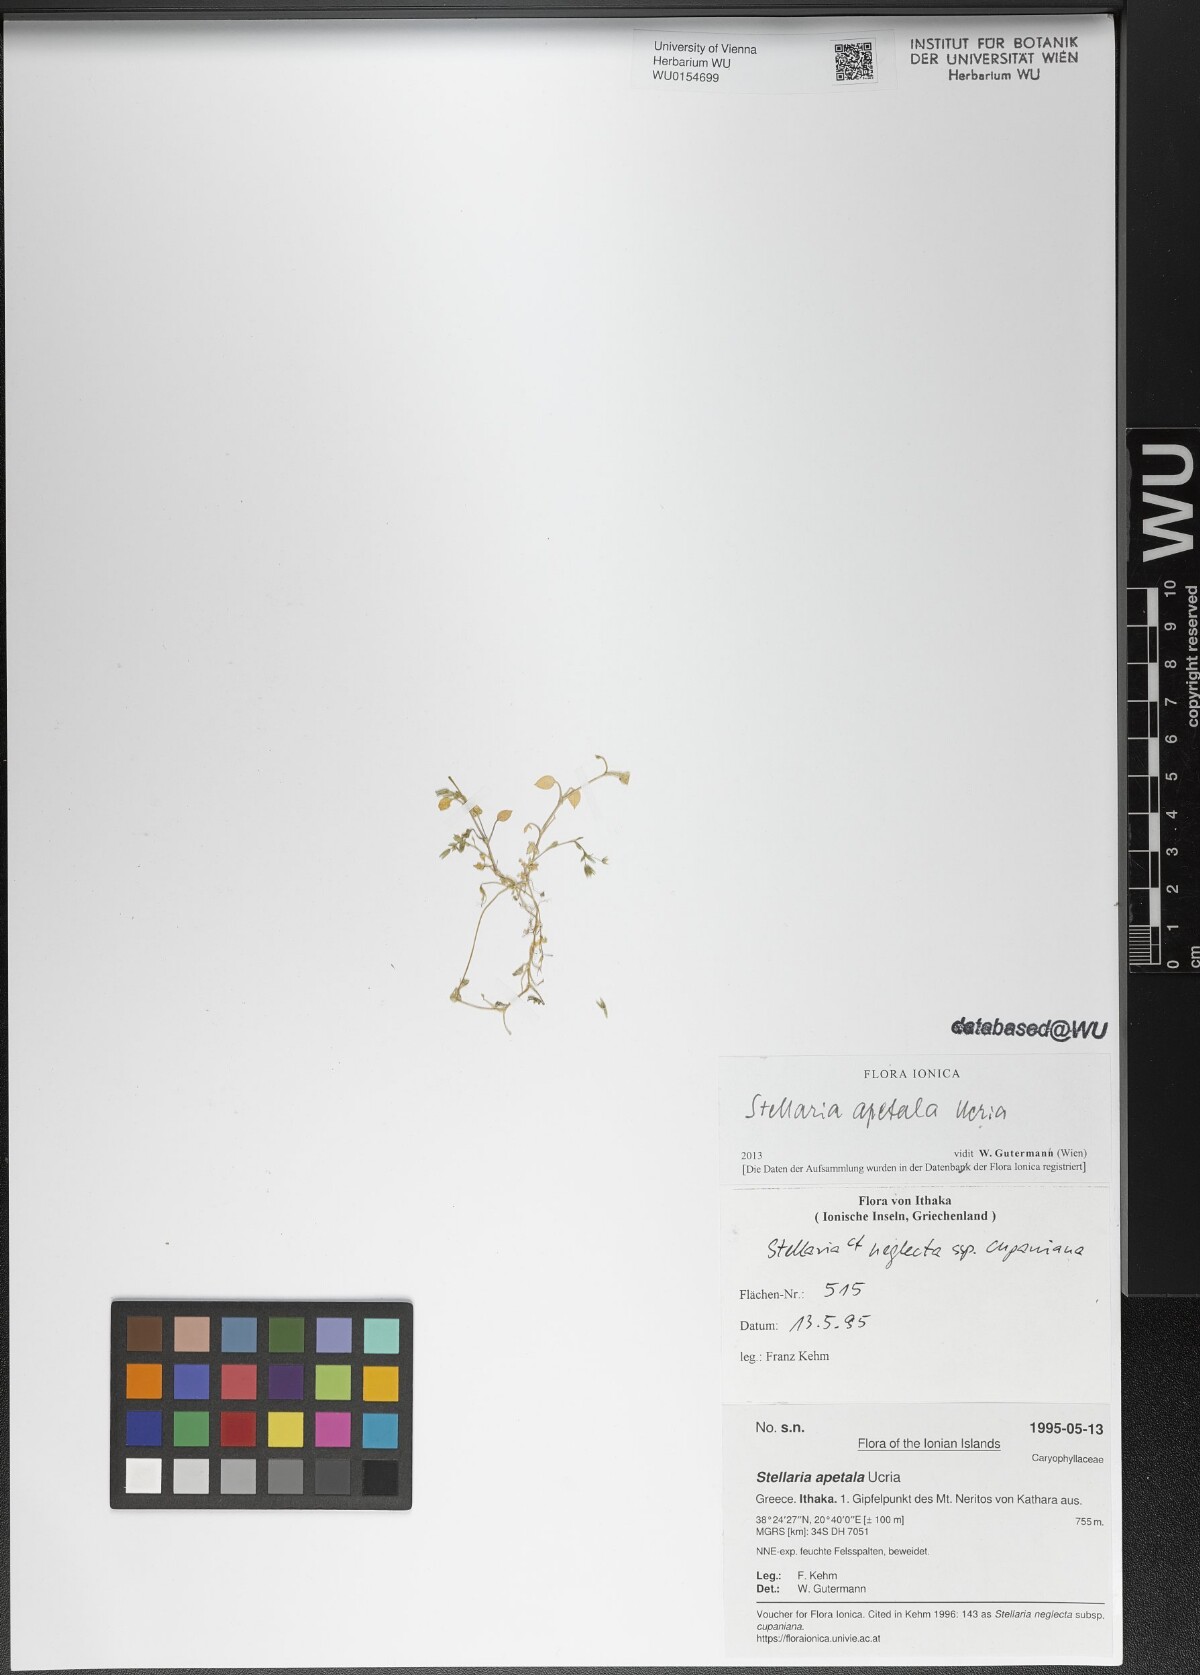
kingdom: Plantae
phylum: Tracheophyta
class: Magnoliopsida
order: Caryophyllales
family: Caryophyllaceae
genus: Stellaria
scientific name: Stellaria apetala
